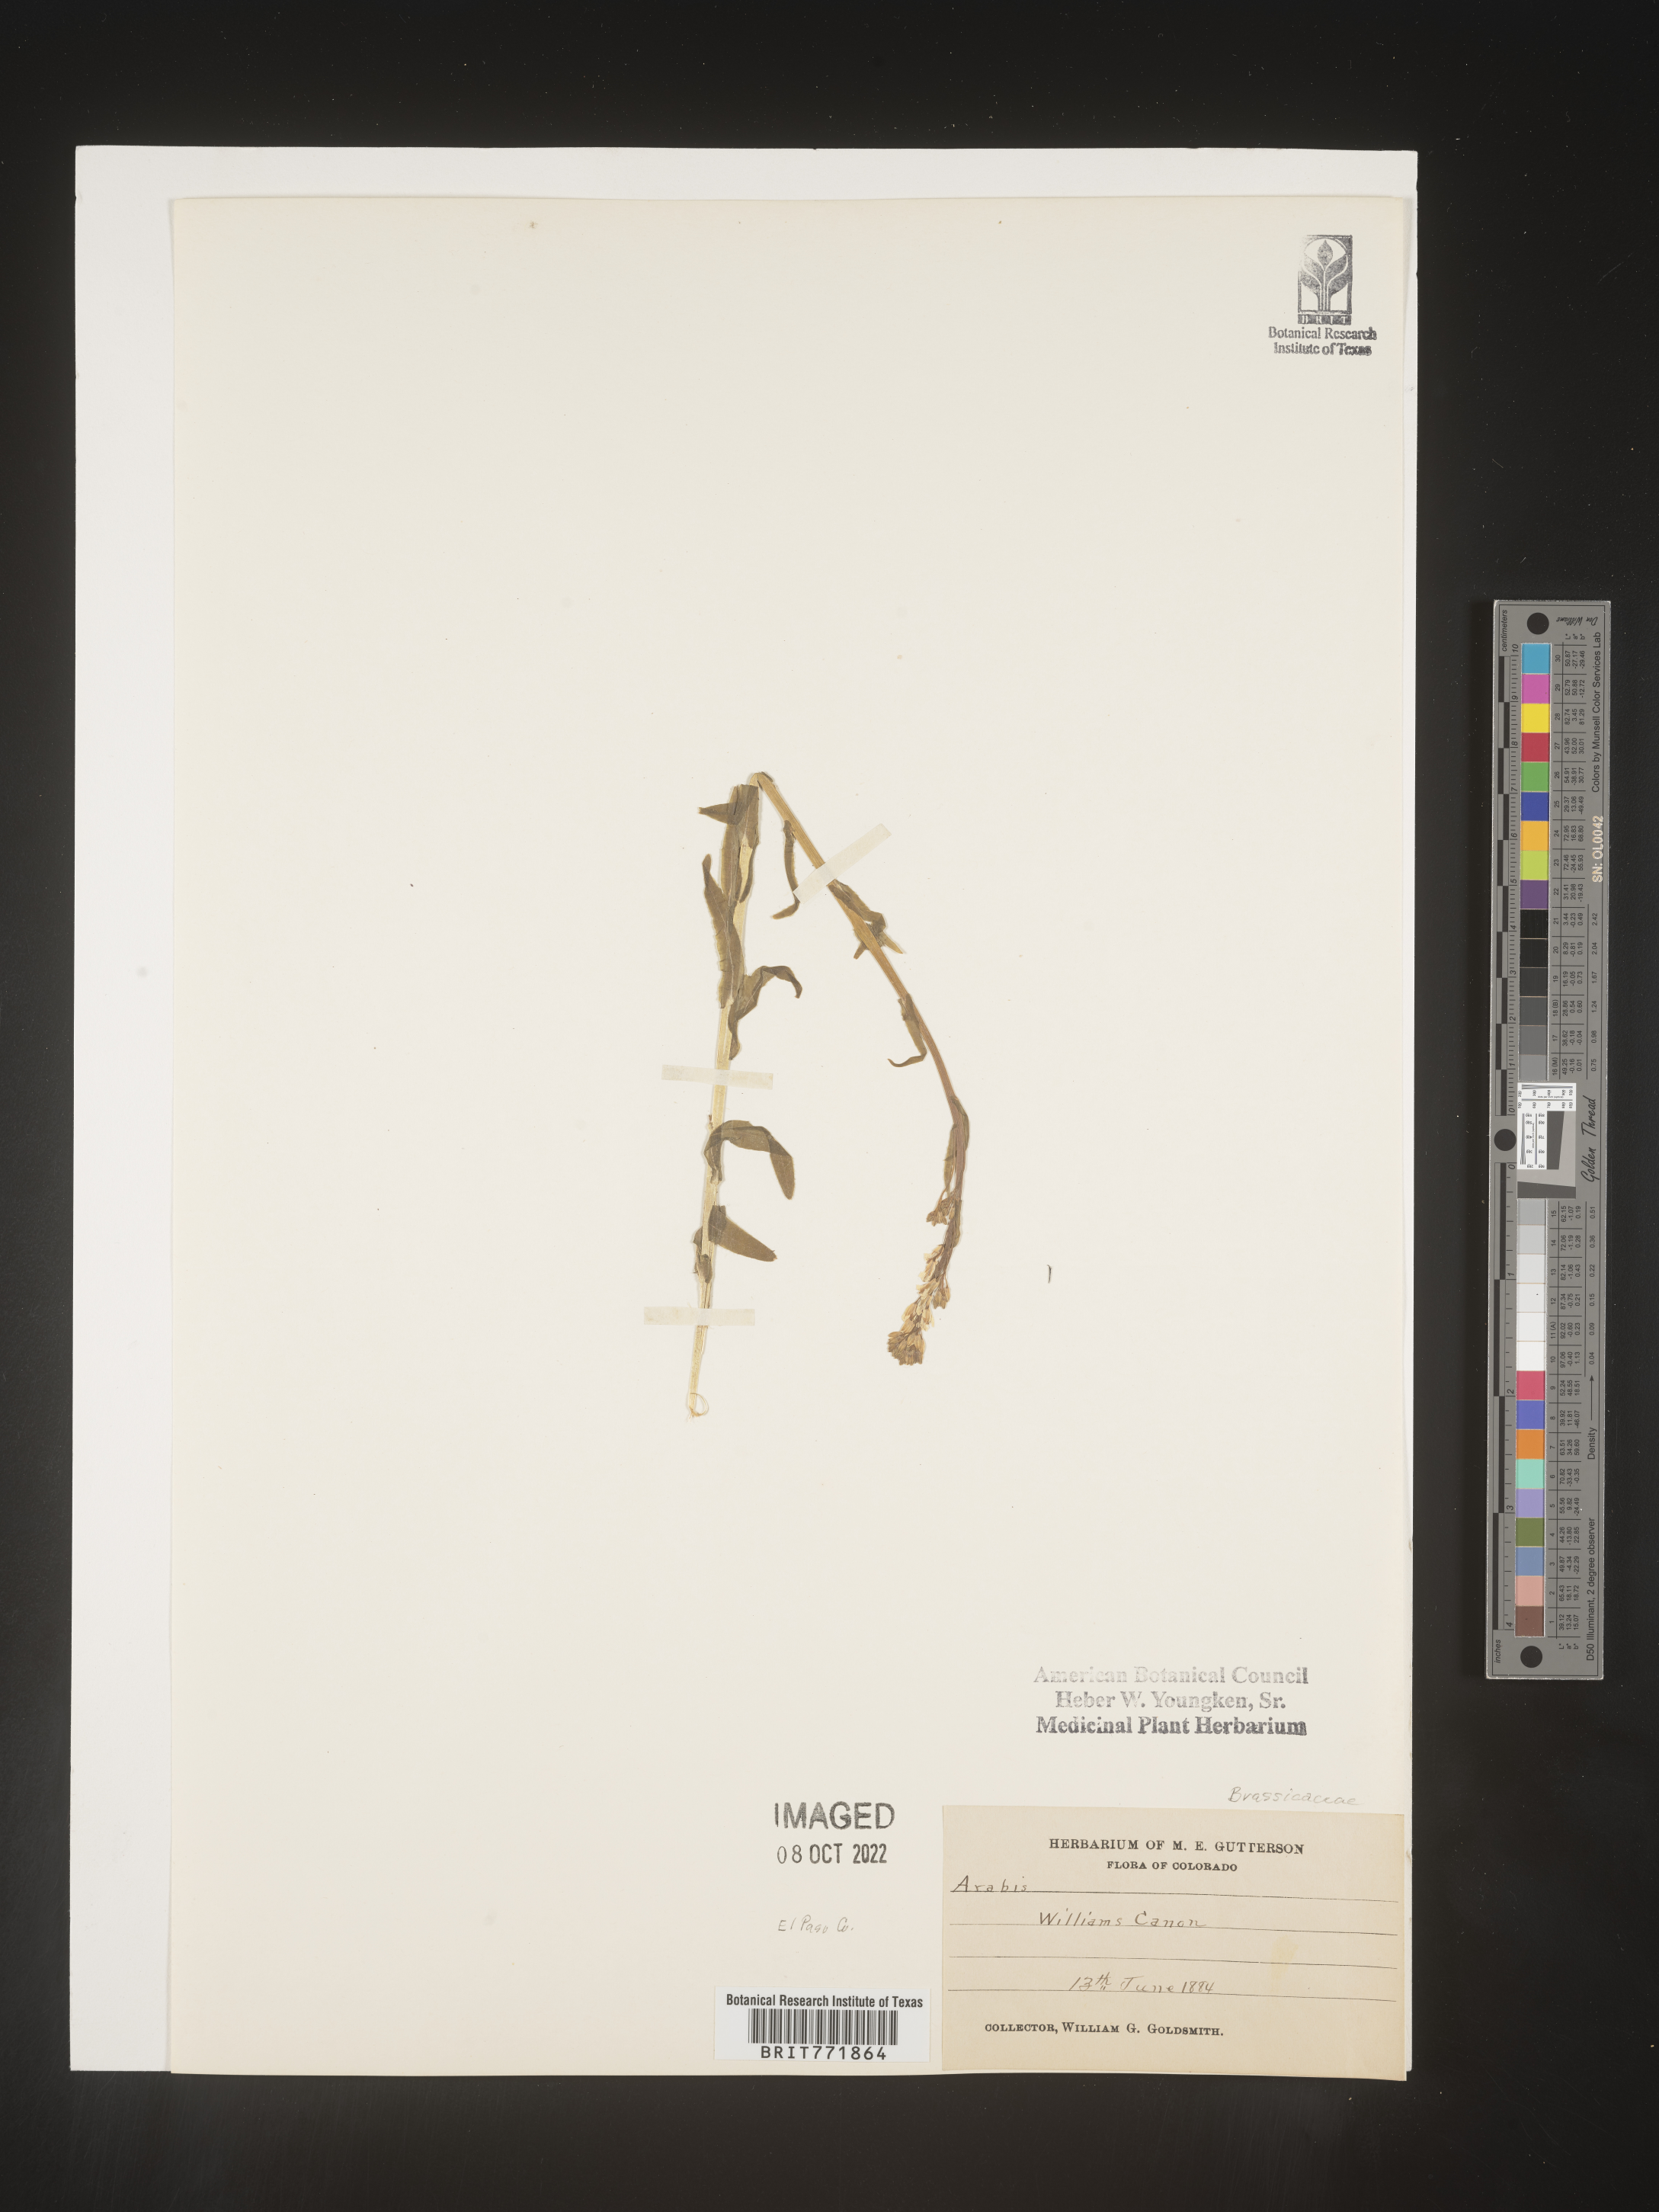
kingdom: Plantae
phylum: Tracheophyta
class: Magnoliopsida
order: Brassicales
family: Brassicaceae
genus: Arabis
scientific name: Arabis
